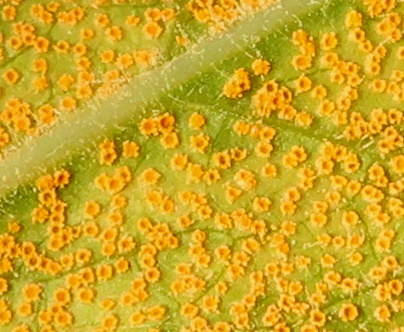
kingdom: Fungi
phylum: Basidiomycota
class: Pucciniomycetes
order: Pucciniales
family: Pucciniaceae
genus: Puccinia
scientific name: Puccinia pulverulenta
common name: dueurt-tvecellerust
